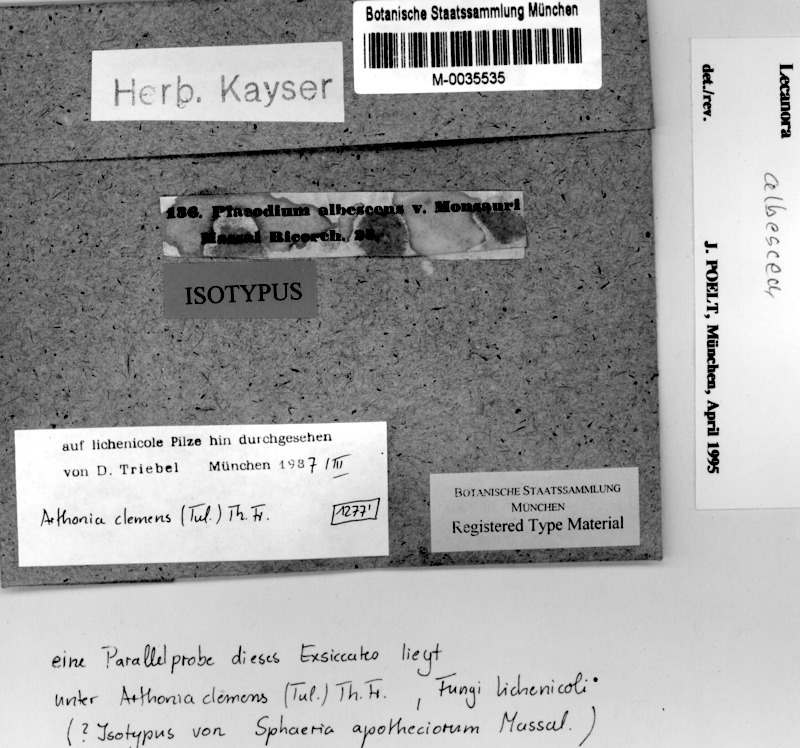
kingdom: Fungi
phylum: Ascomycota
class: Arthoniomycetes
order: Arthoniales
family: Arthoniaceae
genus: Bryostigma
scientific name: Bryostigma apotheciorum
